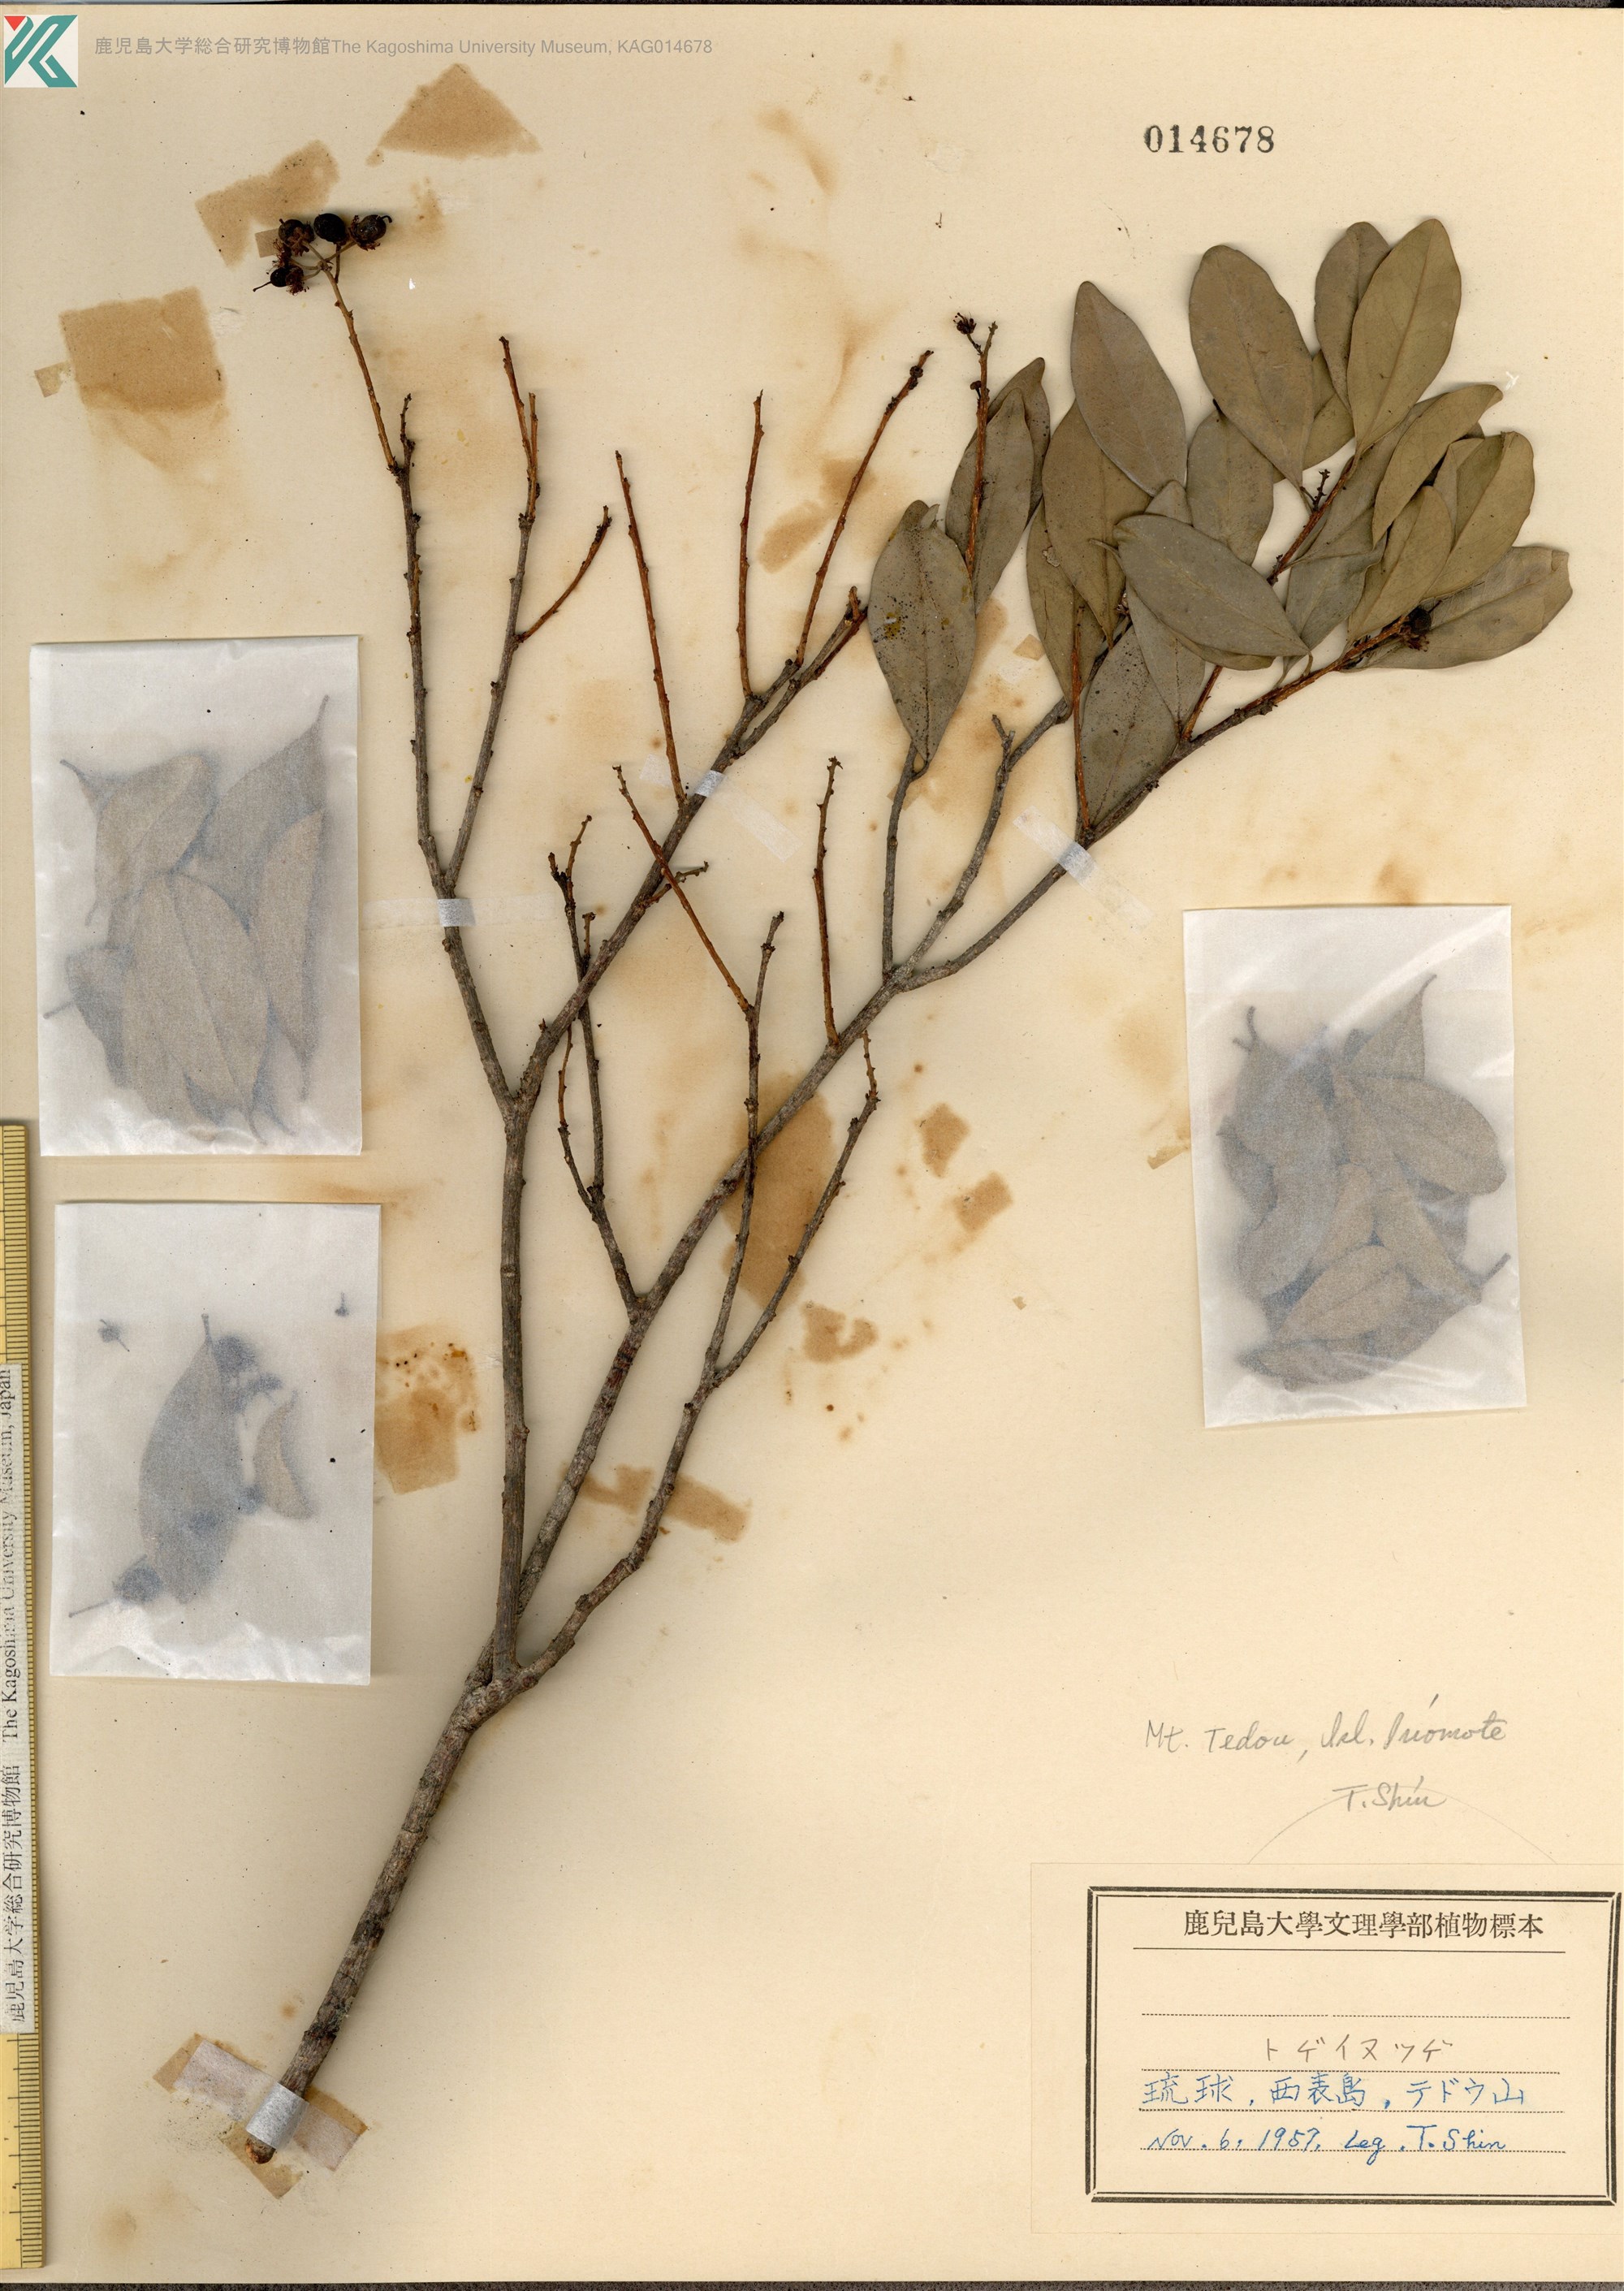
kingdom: Plantae
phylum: Tracheophyta
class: Magnoliopsida
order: Malpighiales
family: Salicaceae
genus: Scolopia
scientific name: Scolopia oldhamii
